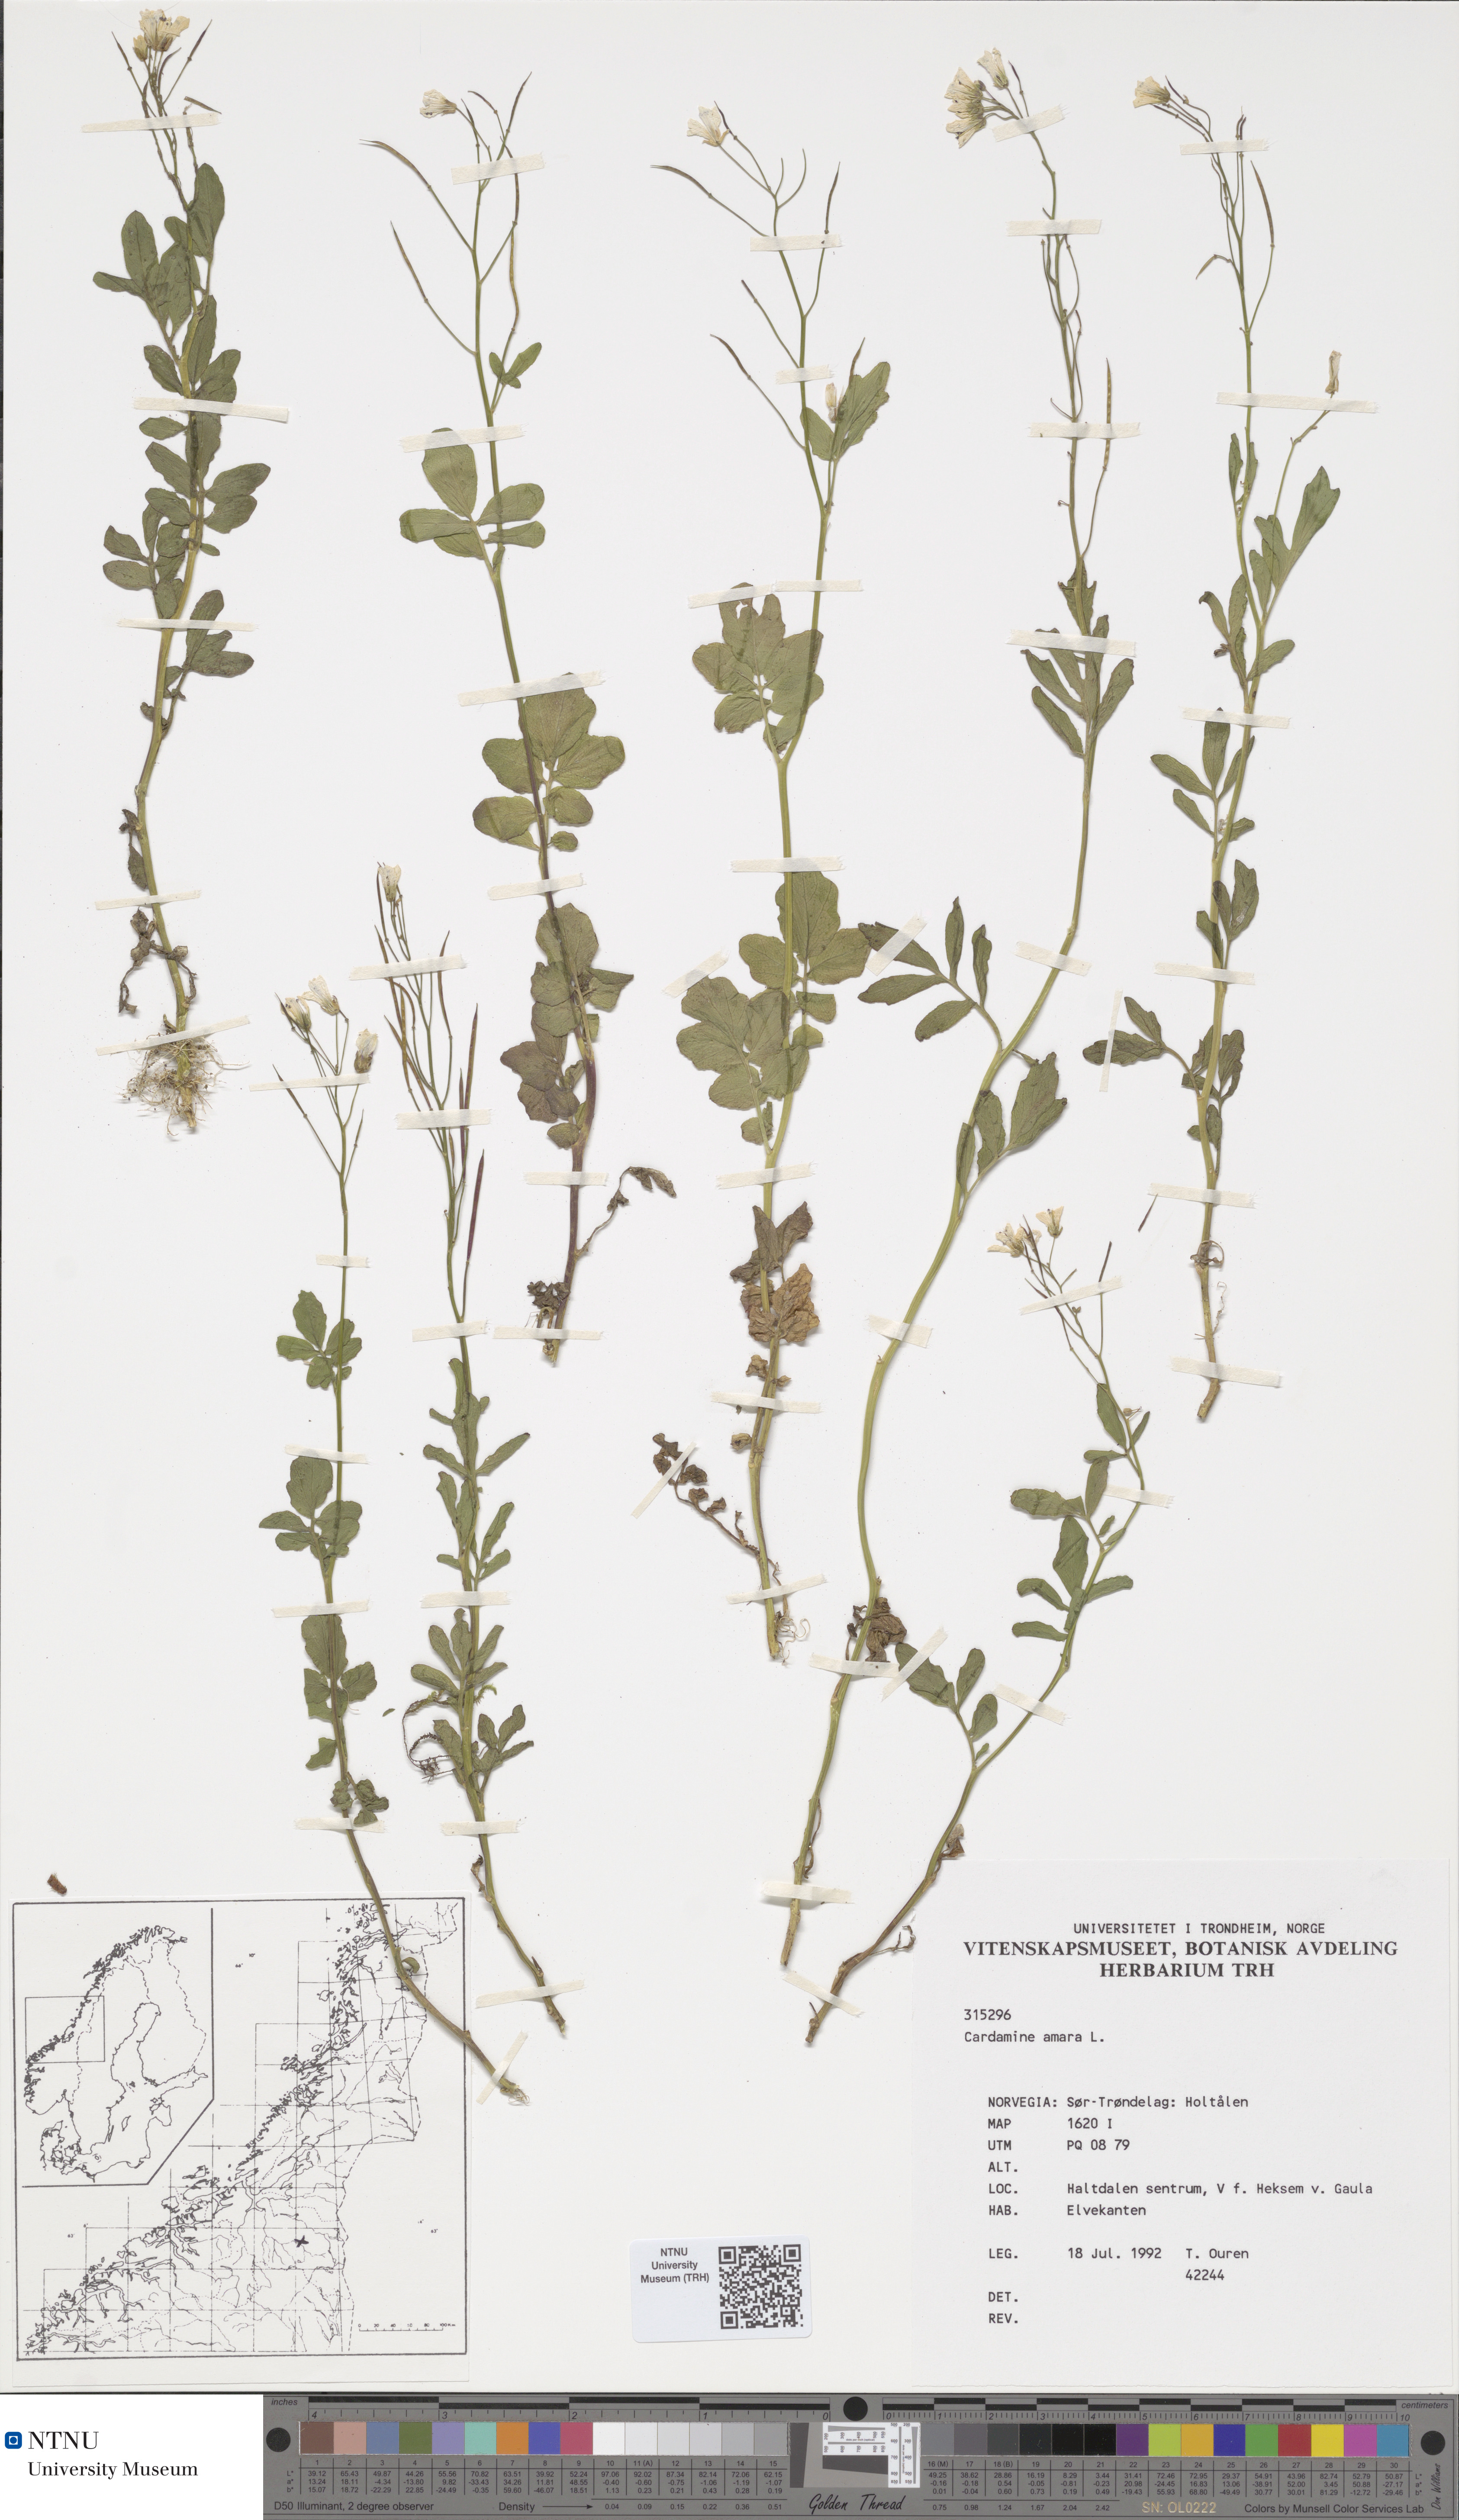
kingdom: Plantae
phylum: Tracheophyta
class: Magnoliopsida
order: Brassicales
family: Brassicaceae
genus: Cardamine
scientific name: Cardamine amara
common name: Large bitter-cress
